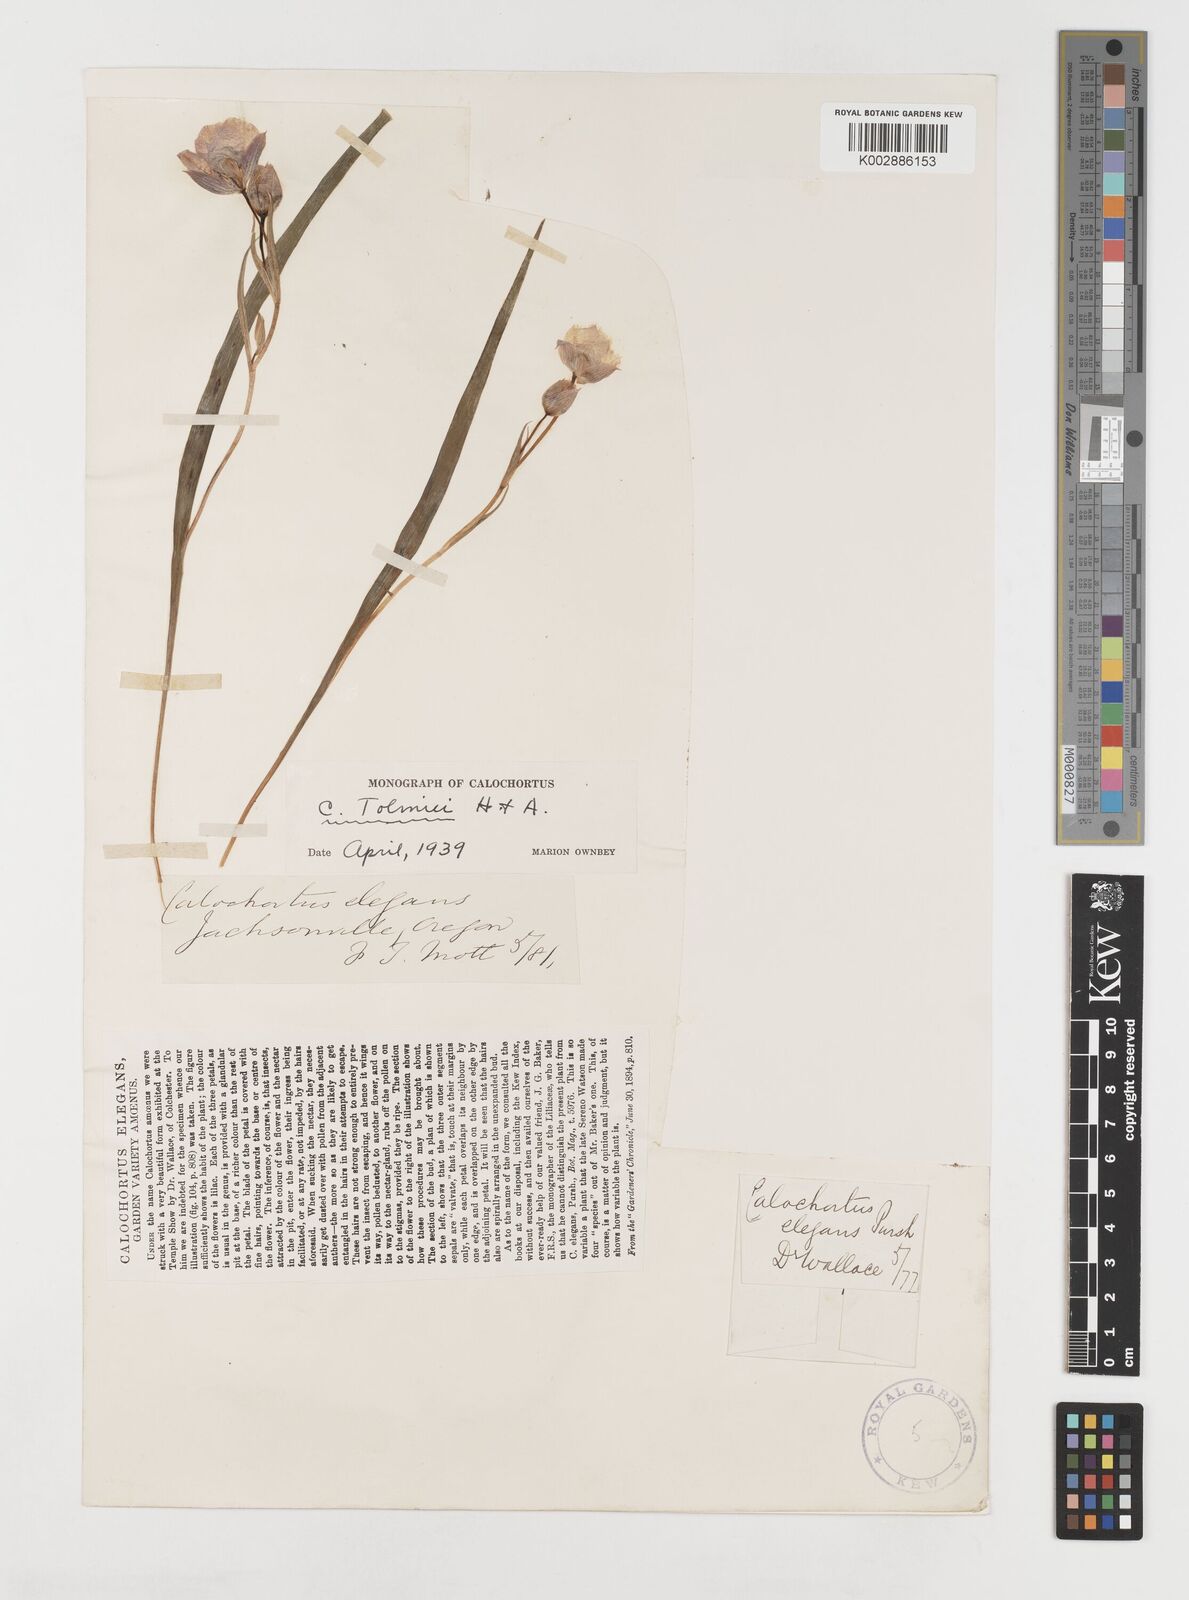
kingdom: Plantae
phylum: Tracheophyta
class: Liliopsida
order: Liliales
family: Liliaceae
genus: Calochortus
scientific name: Calochortus tolmiei
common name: Pussy-ears
